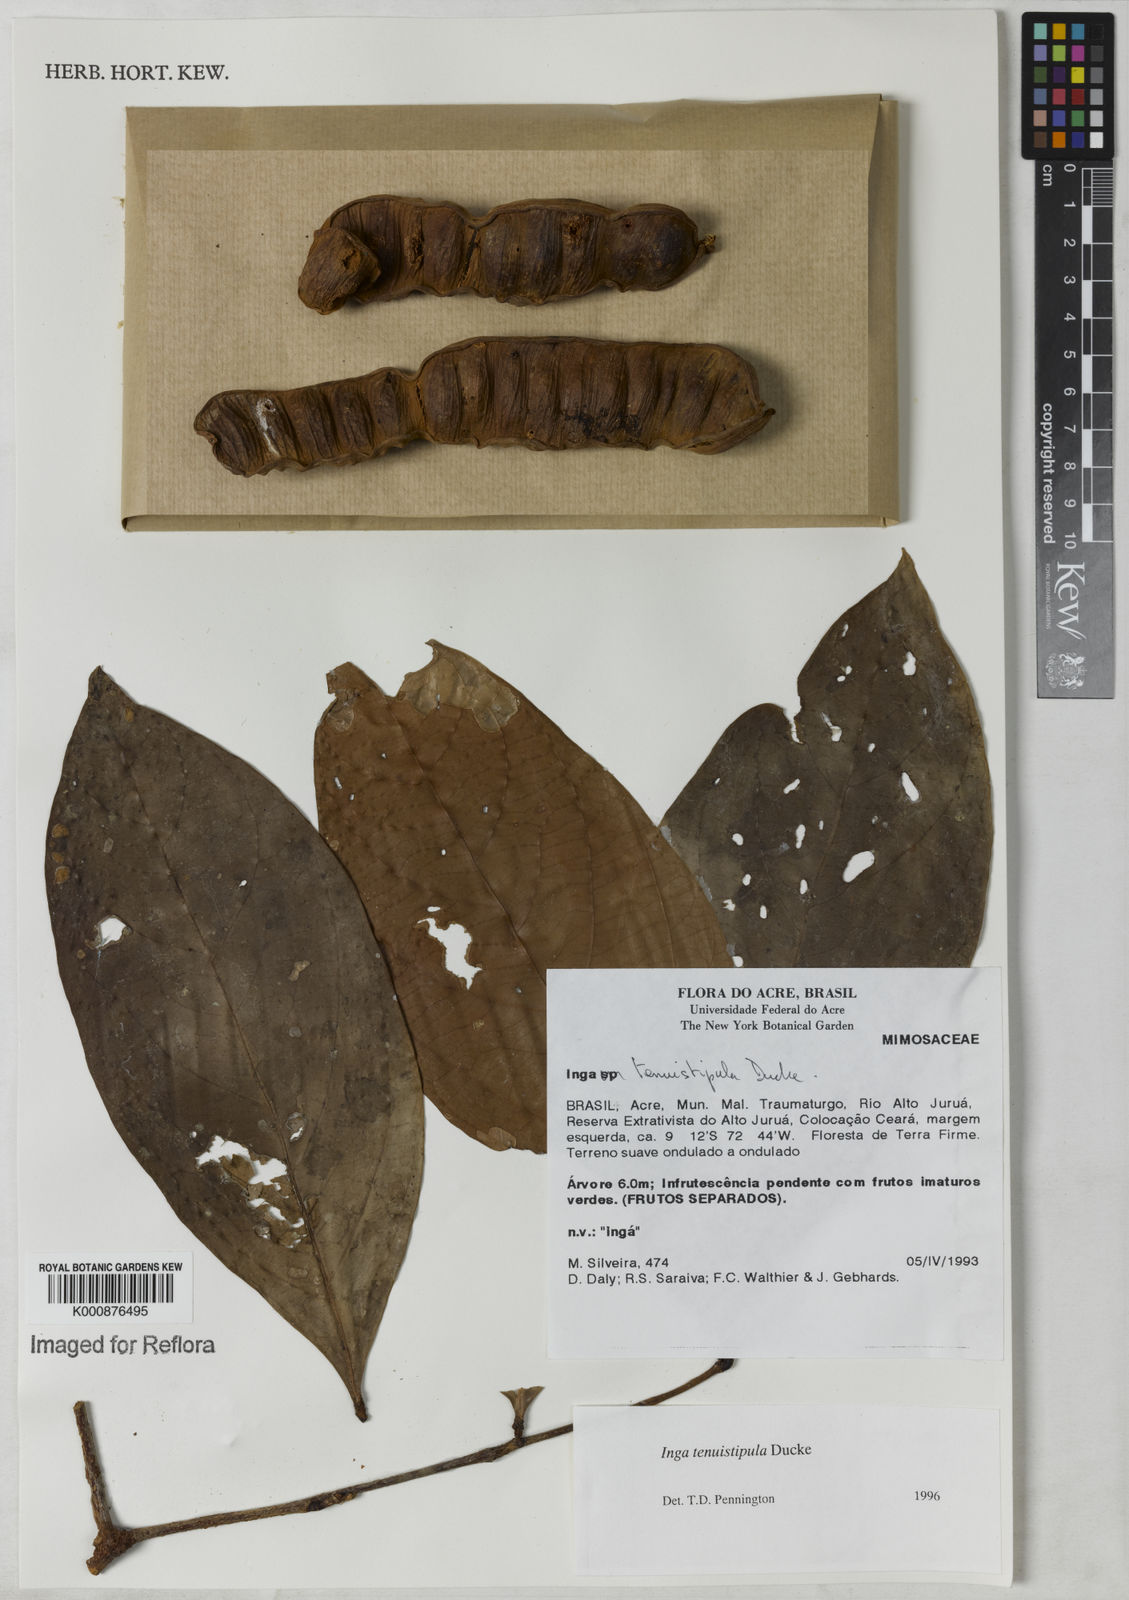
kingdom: Plantae
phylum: Tracheophyta
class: Magnoliopsida
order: Fabales
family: Fabaceae
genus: Inga
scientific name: Inga tenuistipula
